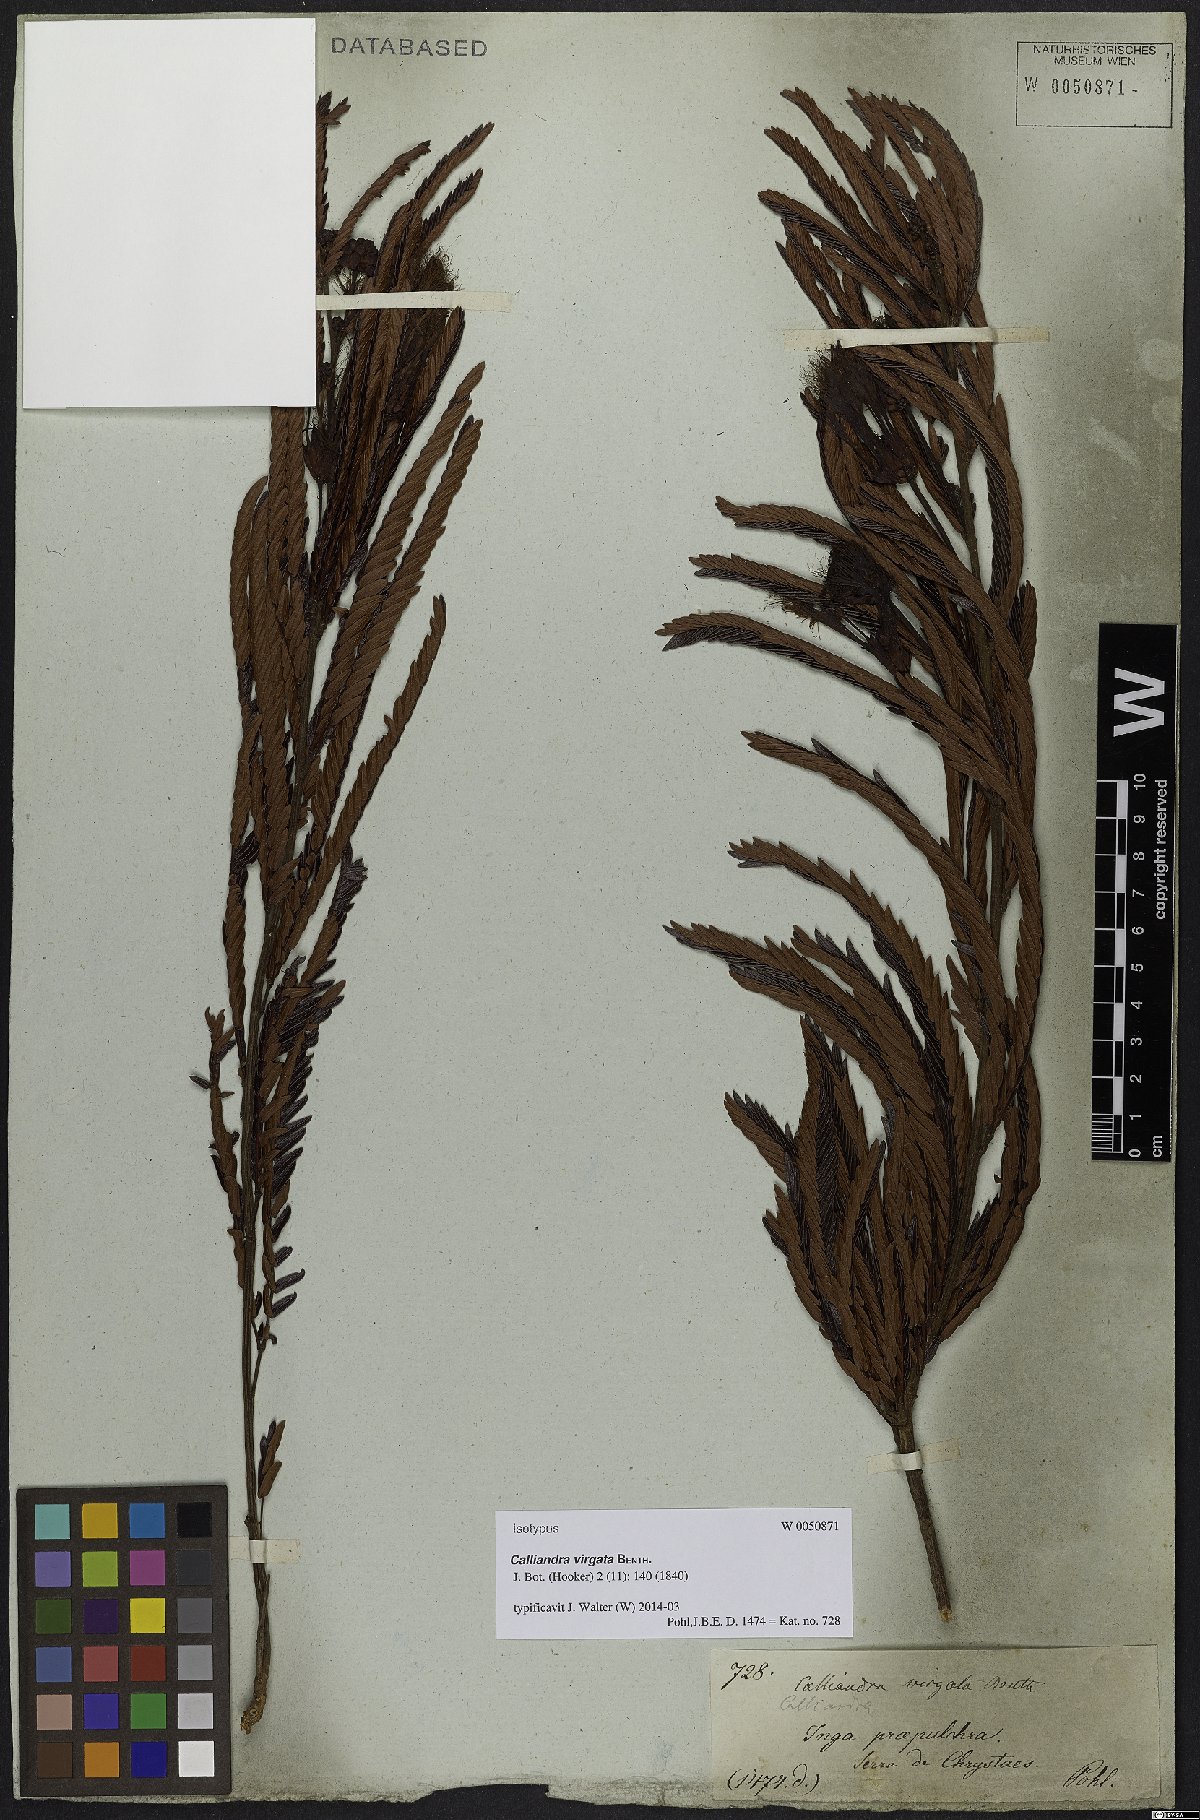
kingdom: Plantae
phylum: Tracheophyta
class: Magnoliopsida
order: Fabales
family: Fabaceae
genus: Calliandra
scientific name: Calliandra virgata
